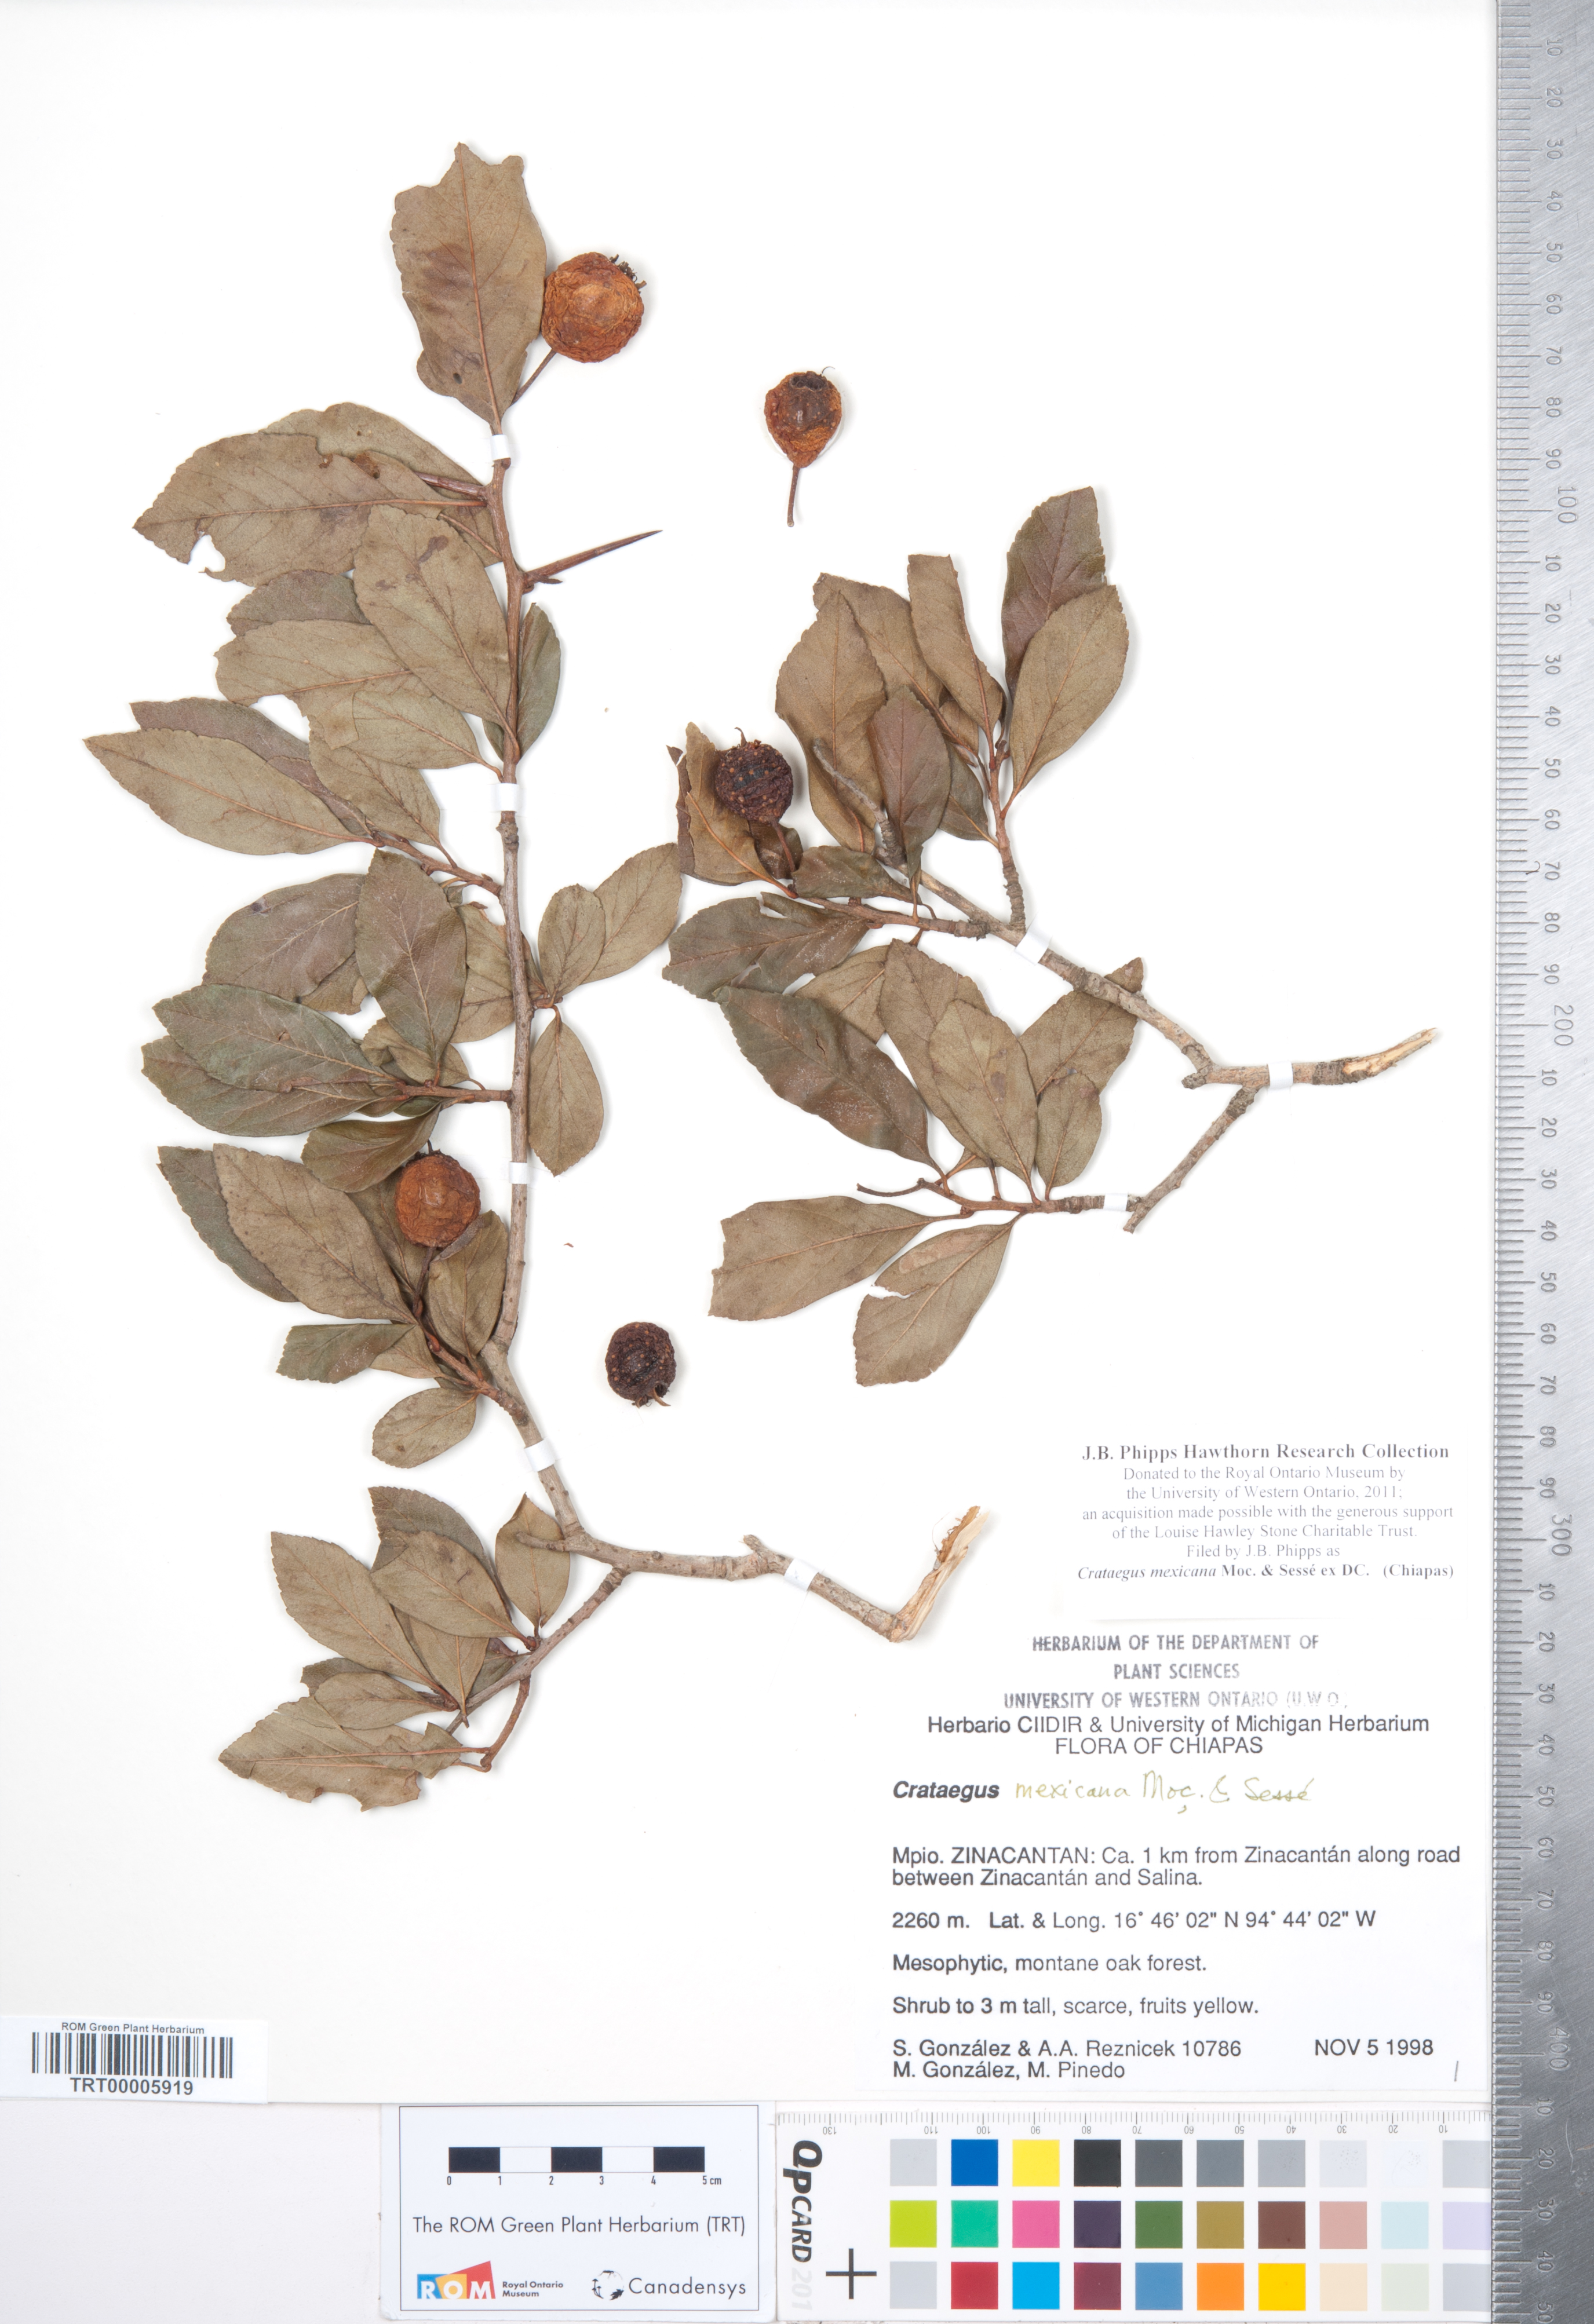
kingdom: Plantae
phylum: Tracheophyta
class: Magnoliopsida
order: Rosales
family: Rosaceae
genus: Crataegus
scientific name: Crataegus mexicana
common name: Mexican hawthorn
